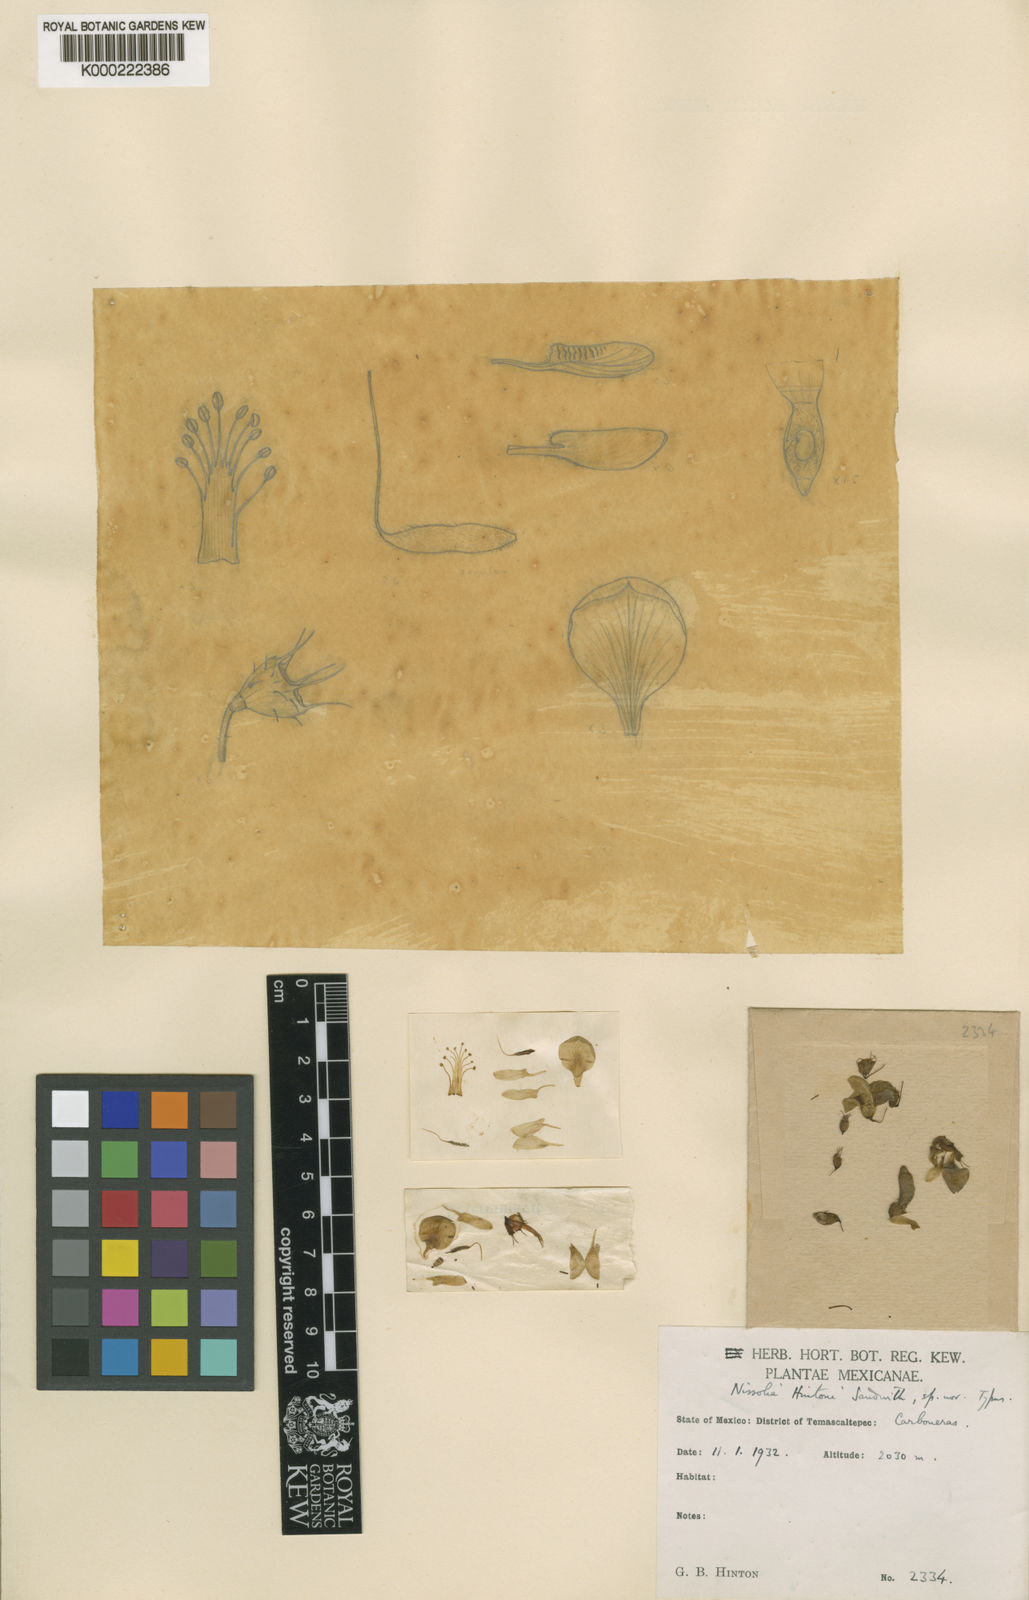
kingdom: Plantae
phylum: Tracheophyta
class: Magnoliopsida
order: Fabales
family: Fabaceae
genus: Nissolia
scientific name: Nissolia hintonii
